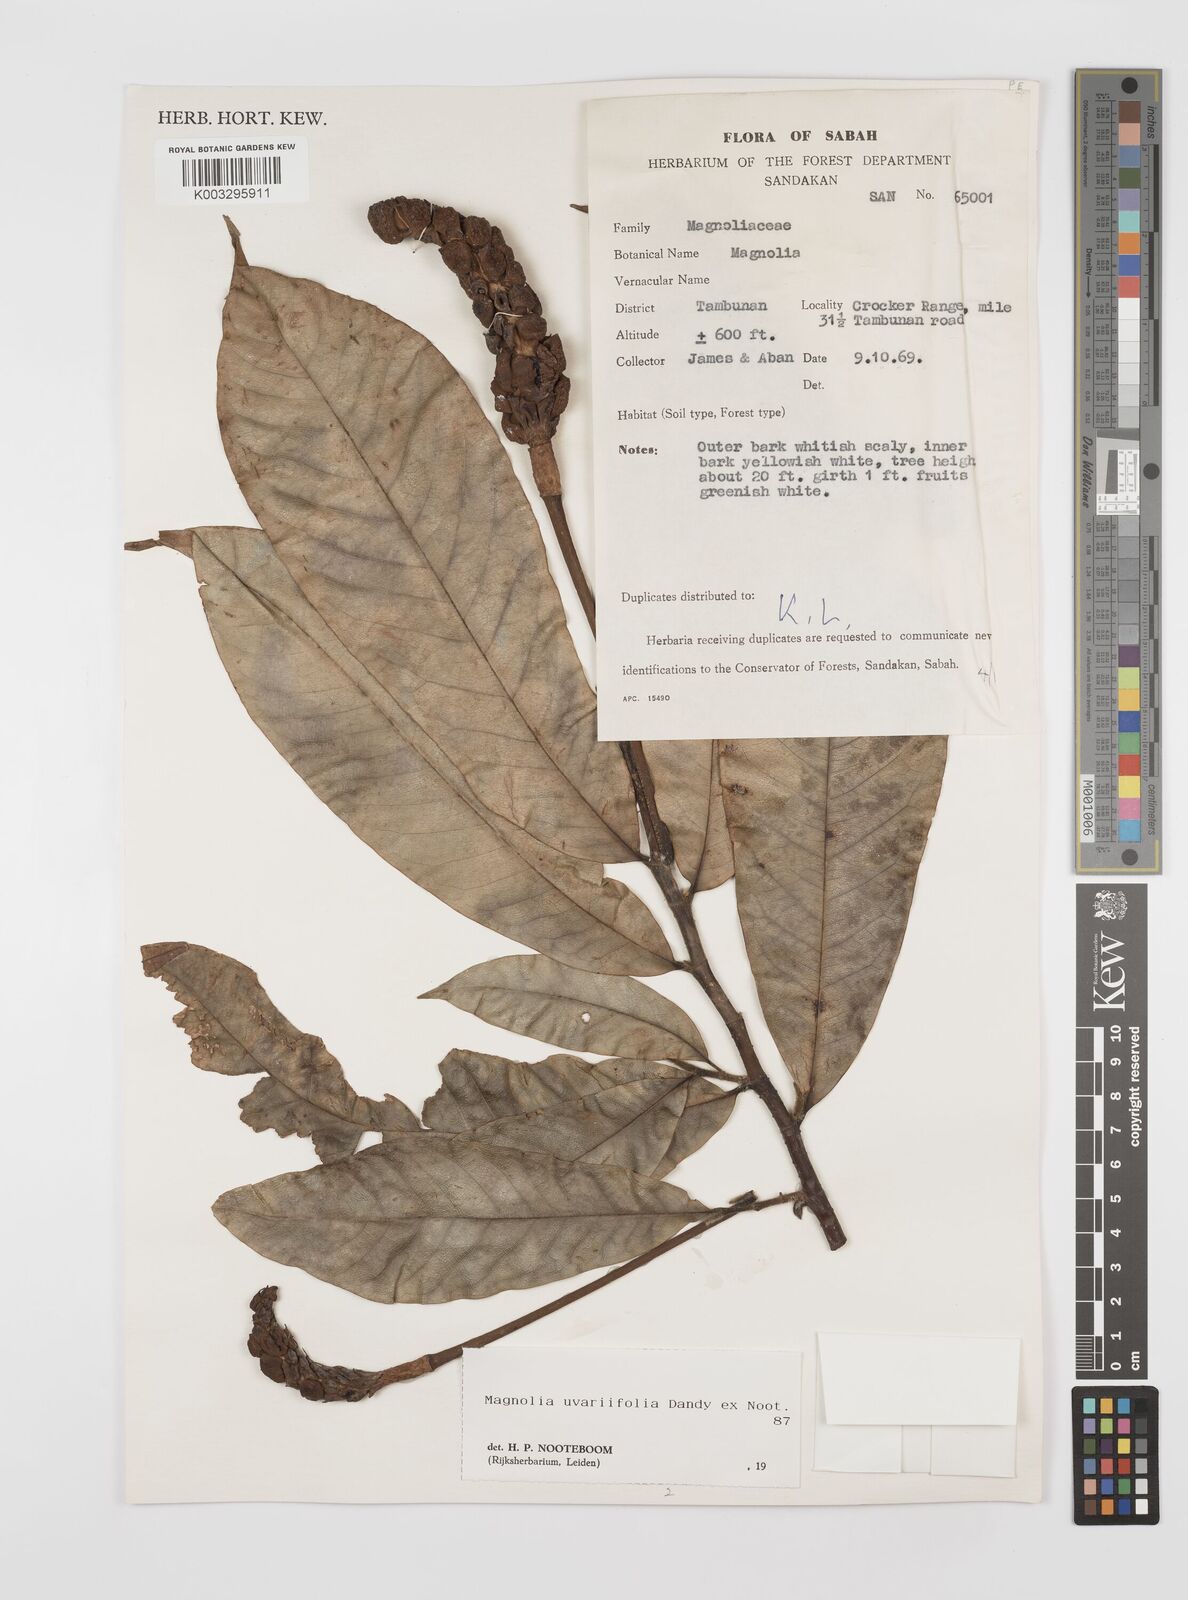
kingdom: Plantae
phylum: Tracheophyta
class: Magnoliopsida
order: Magnoliales
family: Magnoliaceae
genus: Magnolia
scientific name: Magnolia macklottii
